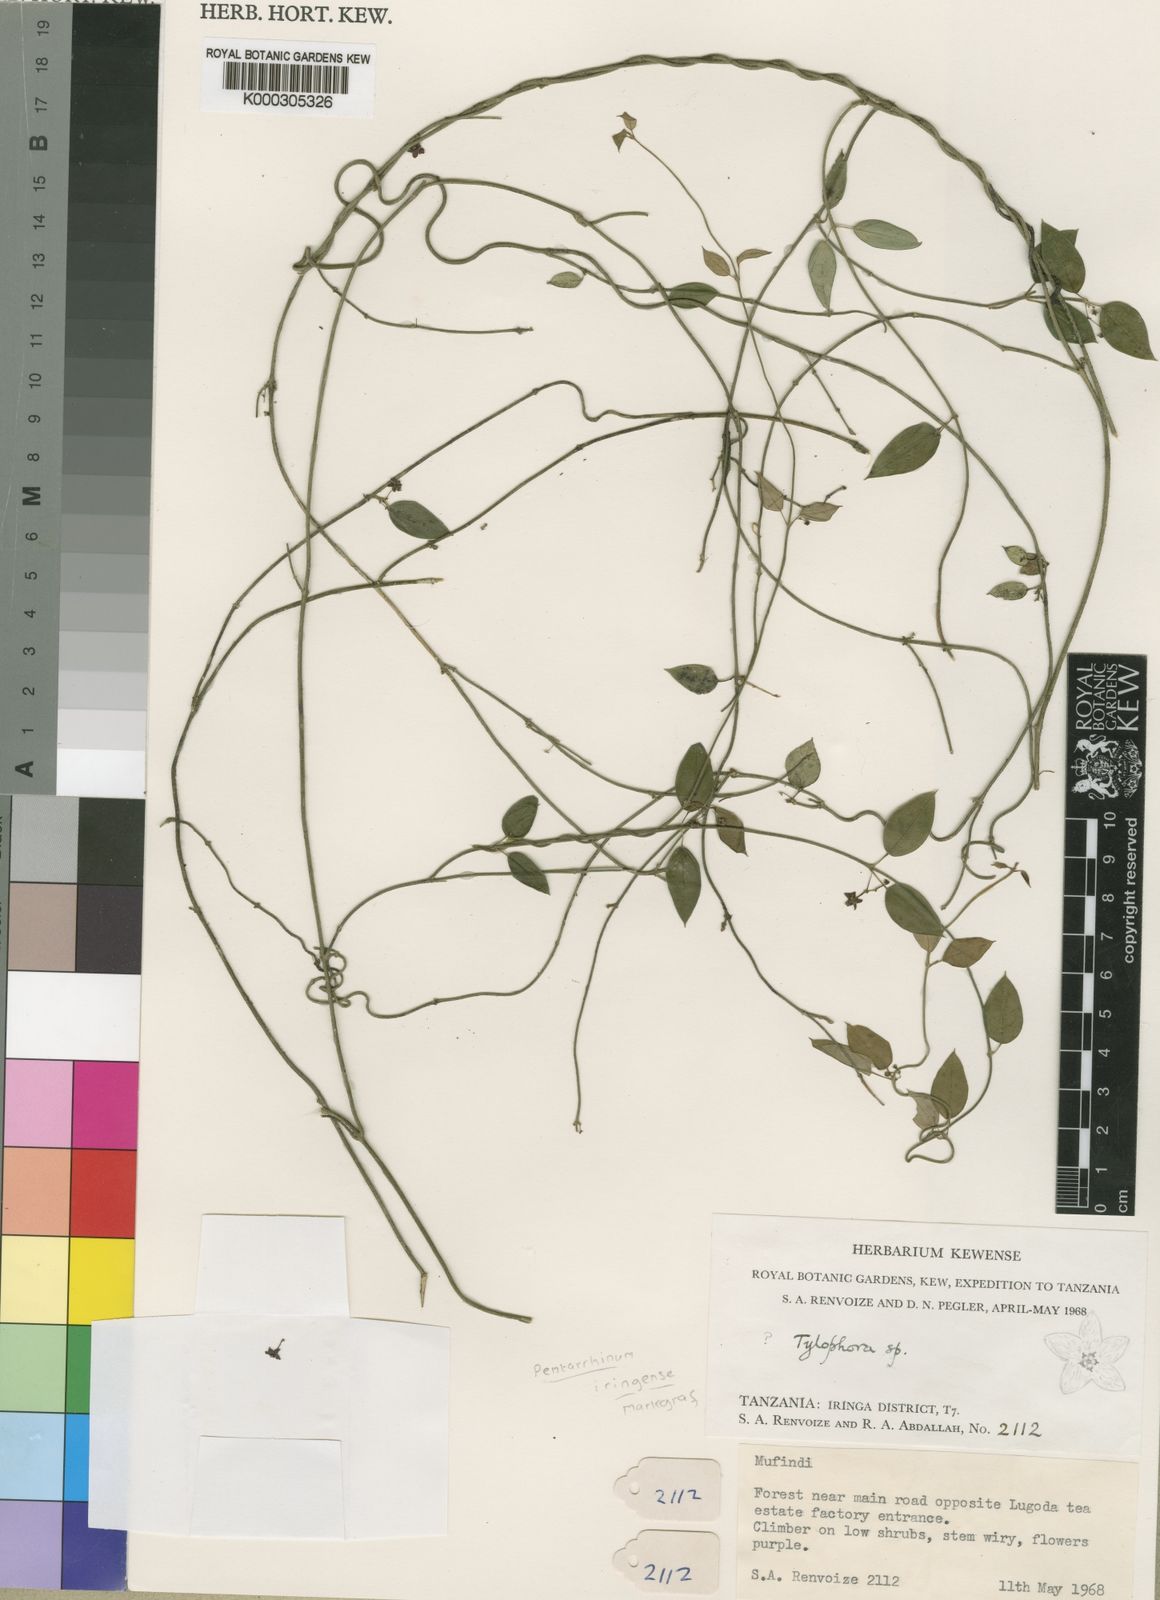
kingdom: Plantae
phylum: Tracheophyta
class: Magnoliopsida
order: Gentianales
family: Apocynaceae
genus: Vincetoxicum
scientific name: Vincetoxicum
